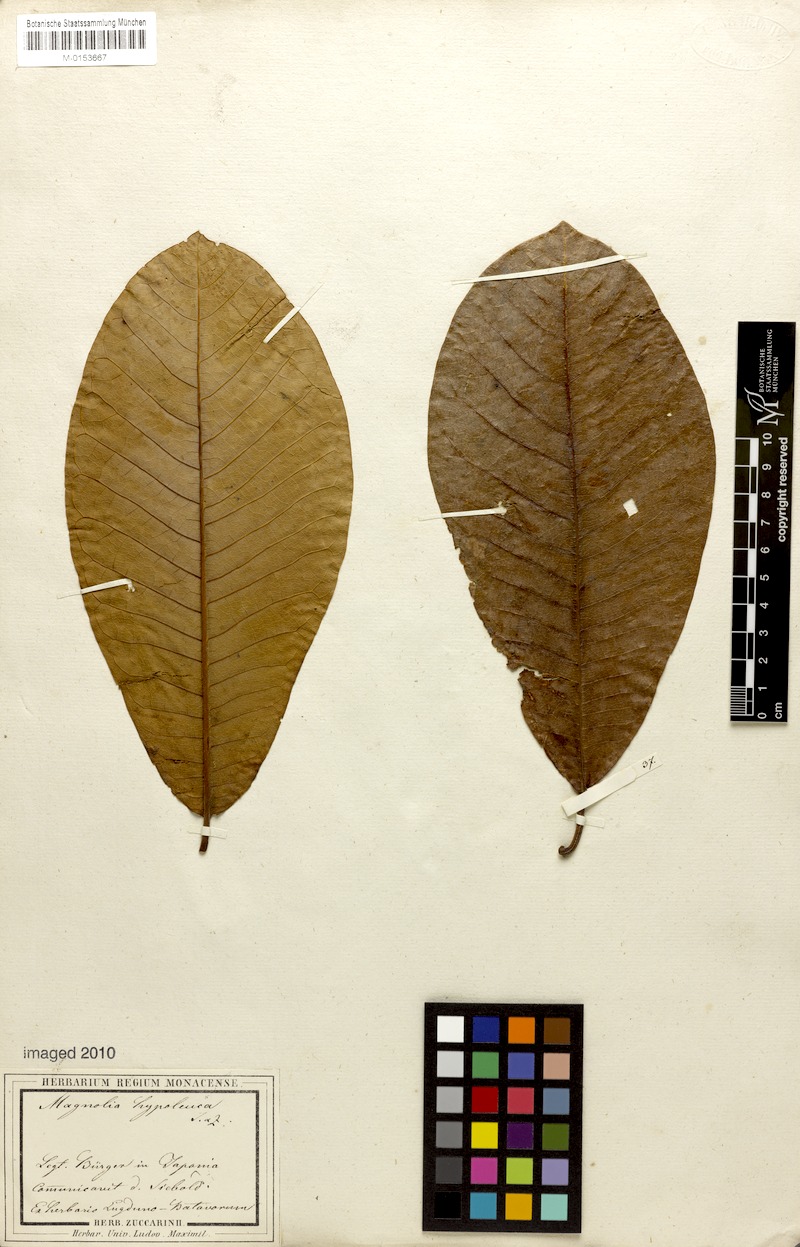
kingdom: Plantae
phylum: Tracheophyta
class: Magnoliopsida
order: Magnoliales
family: Magnoliaceae
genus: Magnolia
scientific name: Magnolia obovata
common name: Japanese whitebark magnolia
